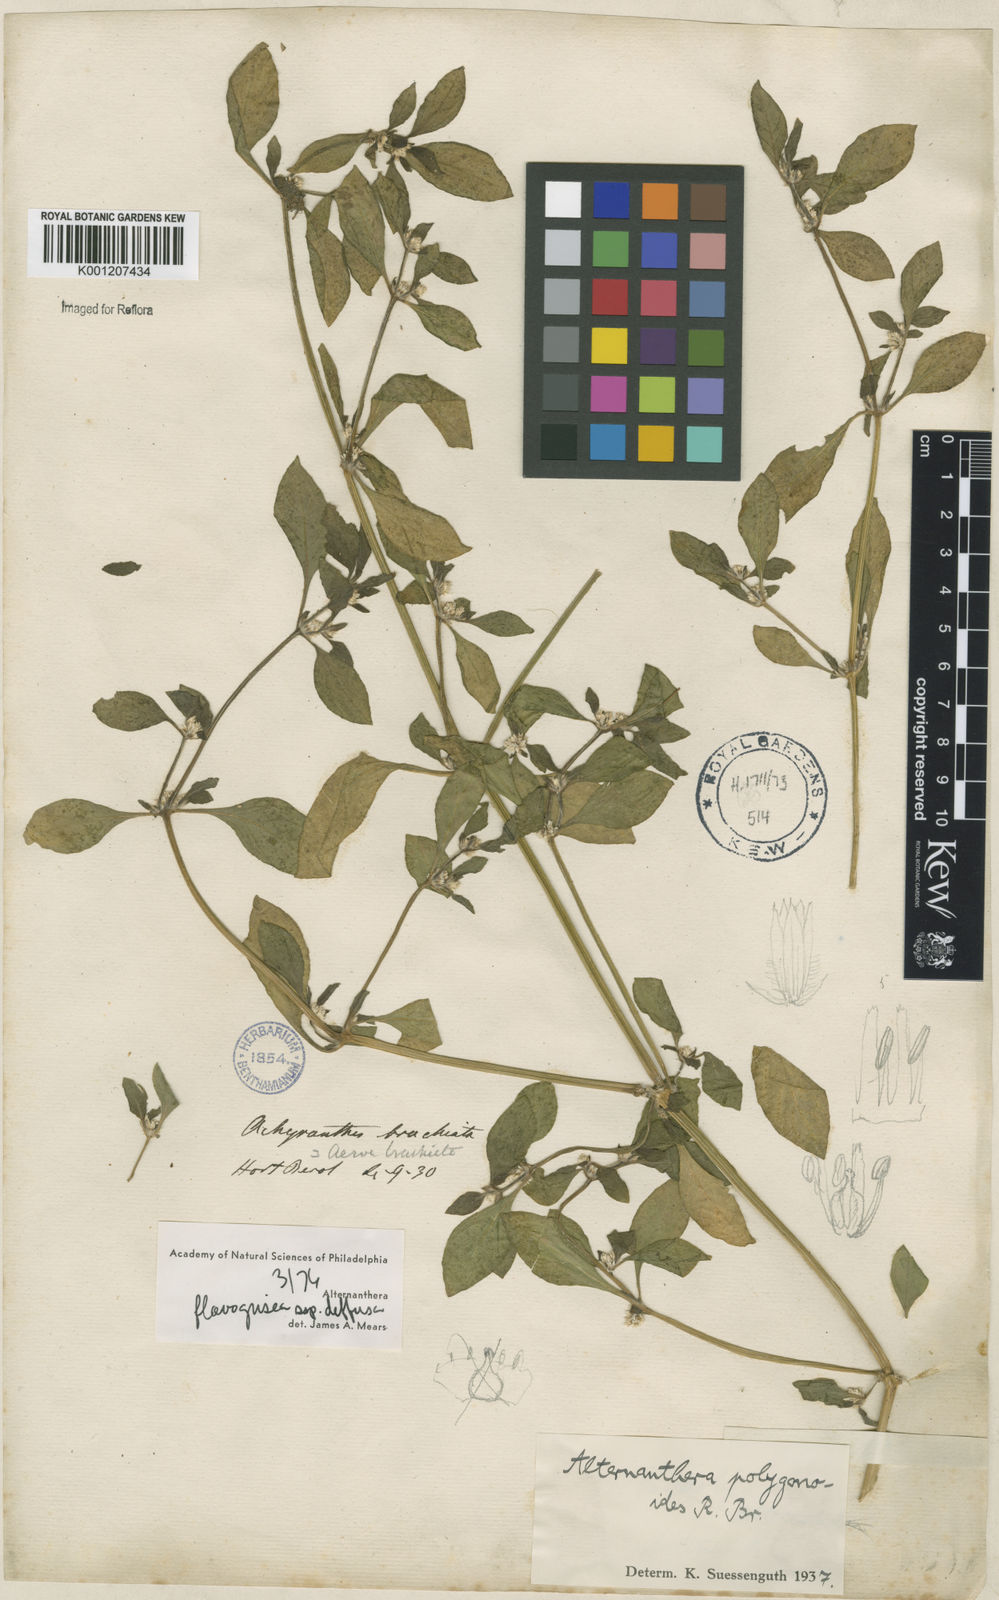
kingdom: Plantae
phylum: Tracheophyta
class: Magnoliopsida
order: Caryophyllales
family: Amaranthaceae
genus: Alternanthera
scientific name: Alternanthera halimifolia
